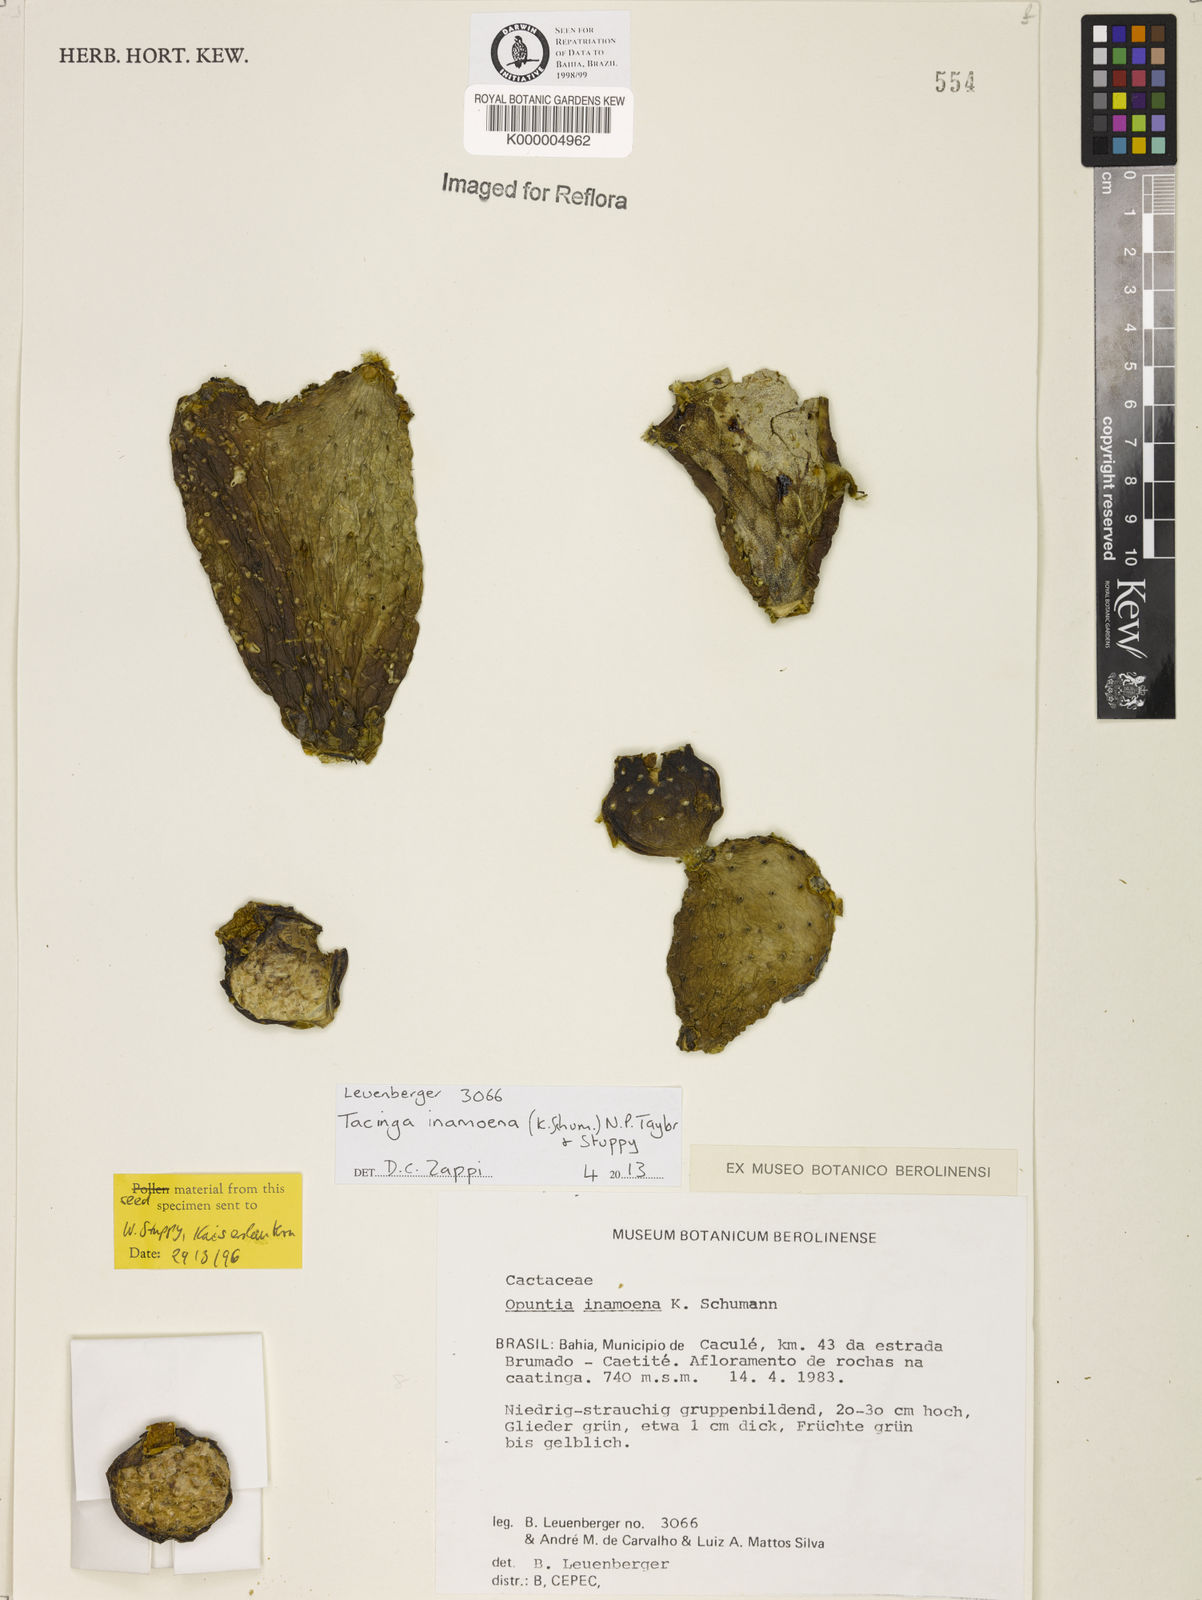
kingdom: Plantae
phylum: Tracheophyta
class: Magnoliopsida
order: Caryophyllales
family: Cactaceae
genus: Tacinga
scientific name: Tacinga inamoena
